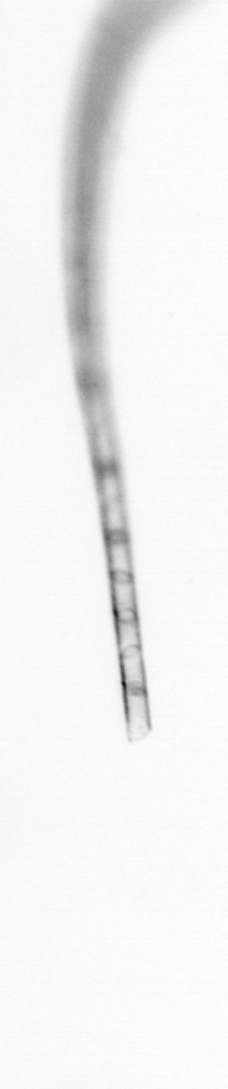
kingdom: Chromista
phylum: Ochrophyta
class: Bacillariophyceae
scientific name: Bacillariophyceae
